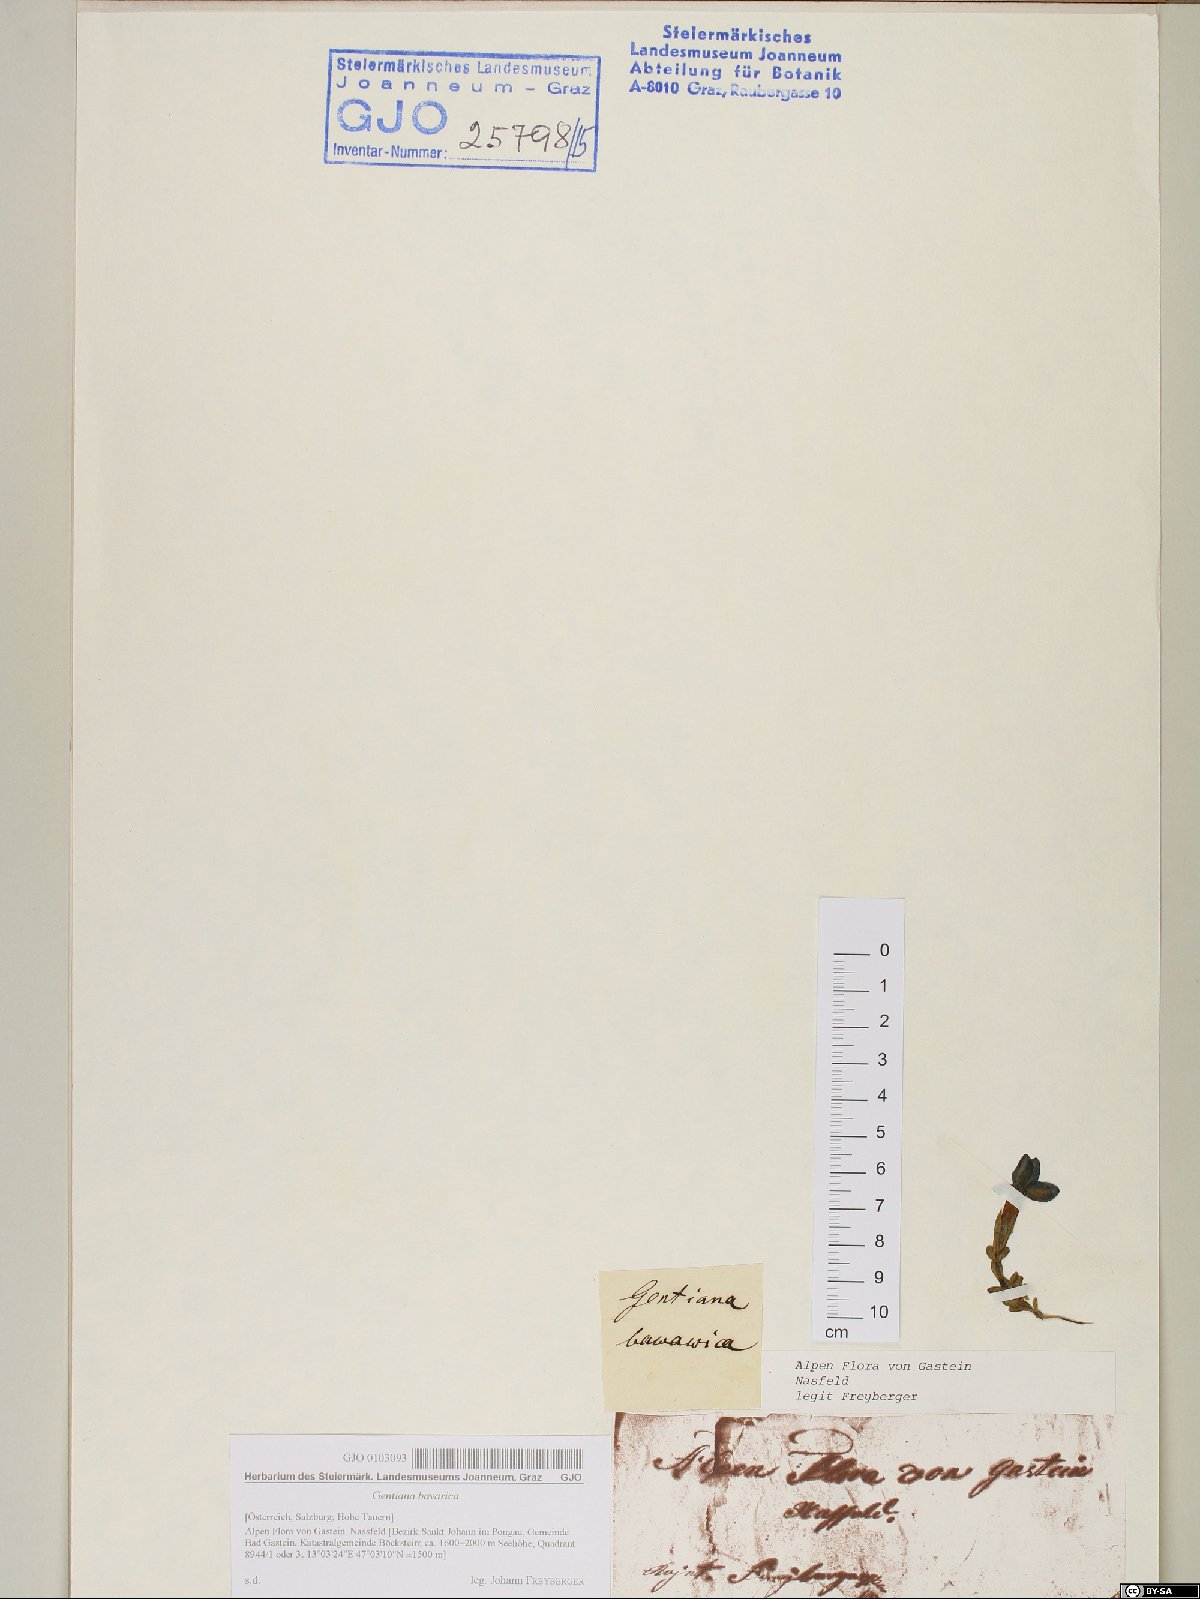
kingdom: Plantae
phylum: Tracheophyta
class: Magnoliopsida
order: Gentianales
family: Gentianaceae
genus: Gentiana
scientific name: Gentiana bavarica
